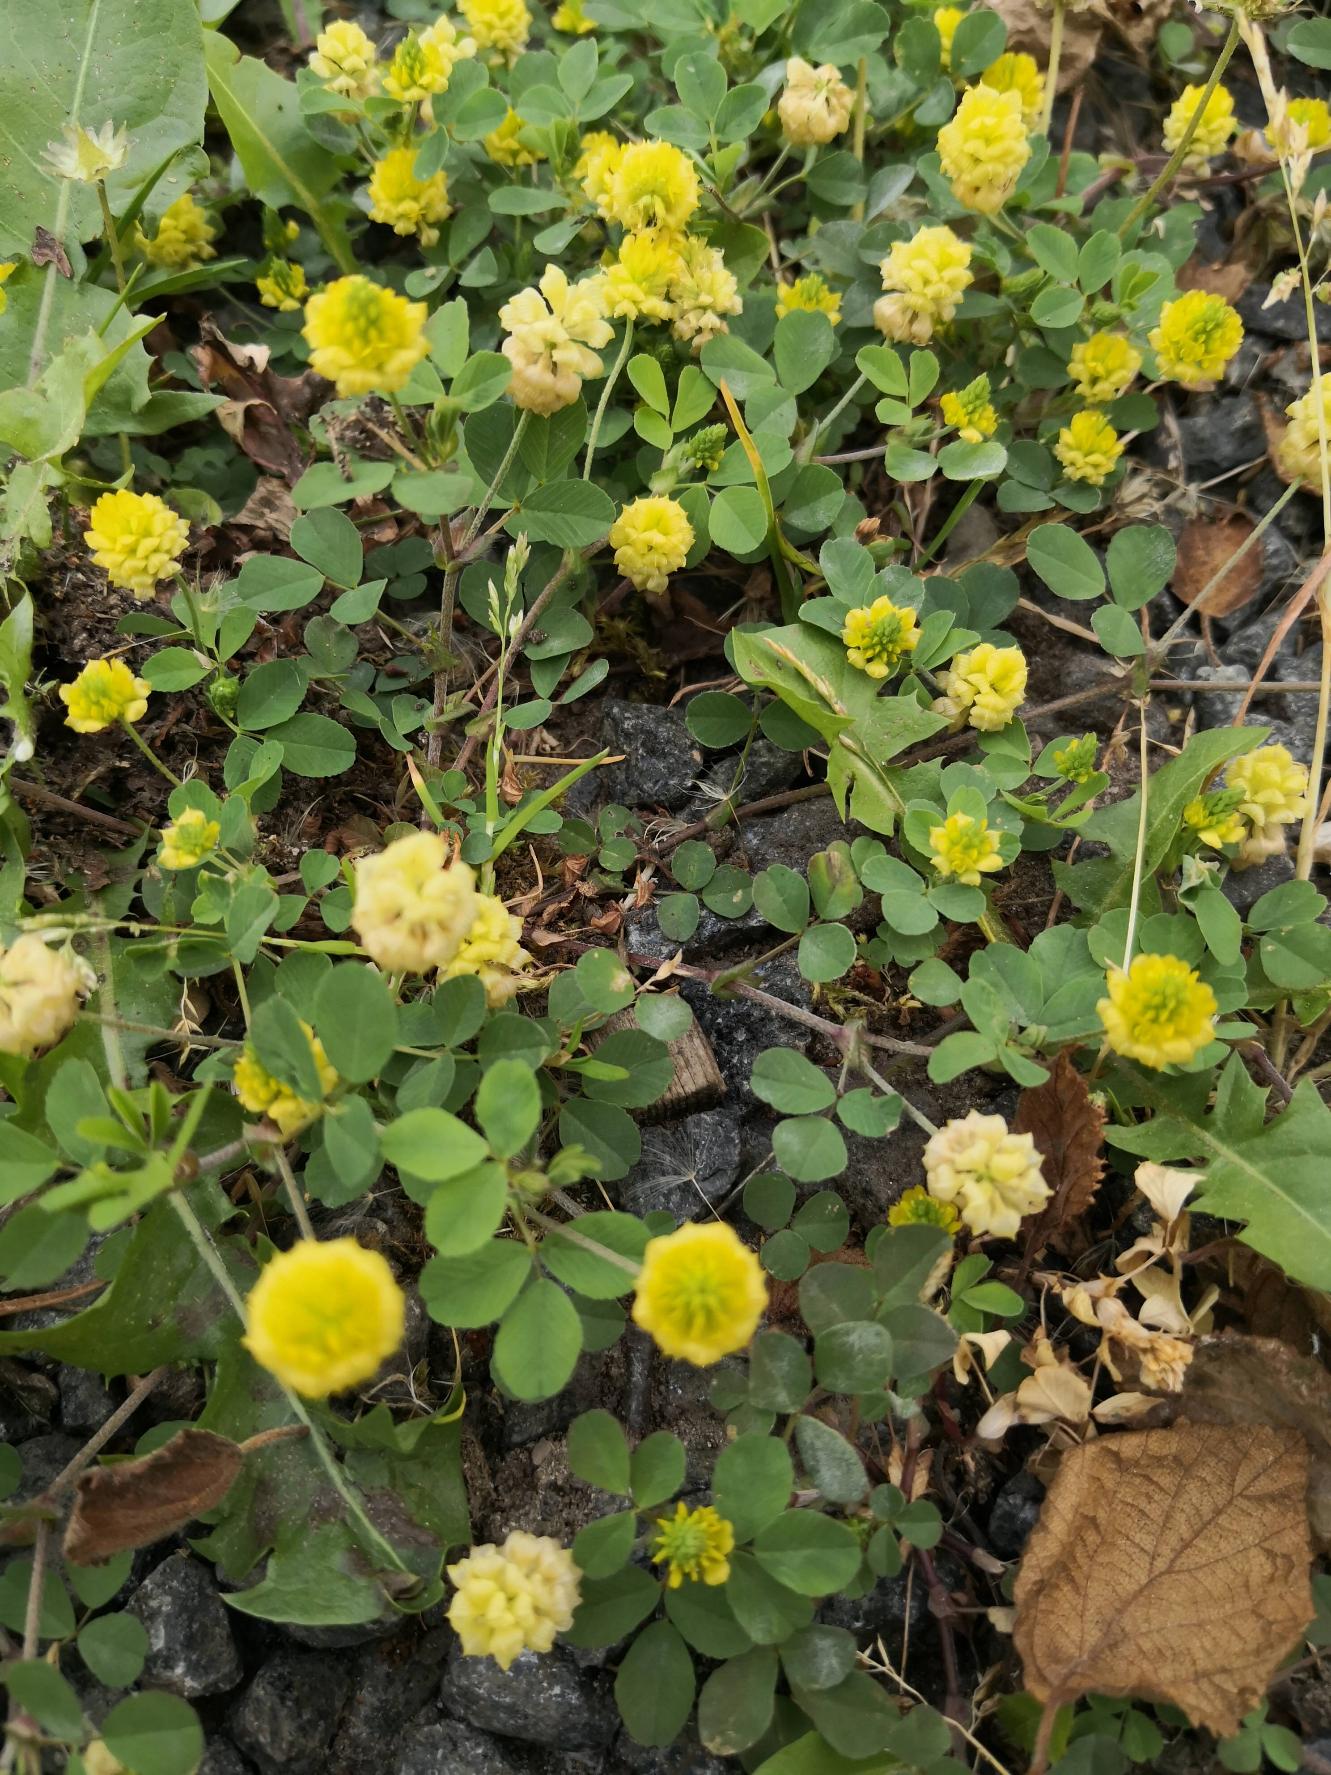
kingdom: Plantae
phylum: Tracheophyta
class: Magnoliopsida
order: Fabales
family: Fabaceae
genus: Trifolium
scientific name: Trifolium campestre
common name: Gul kløver
